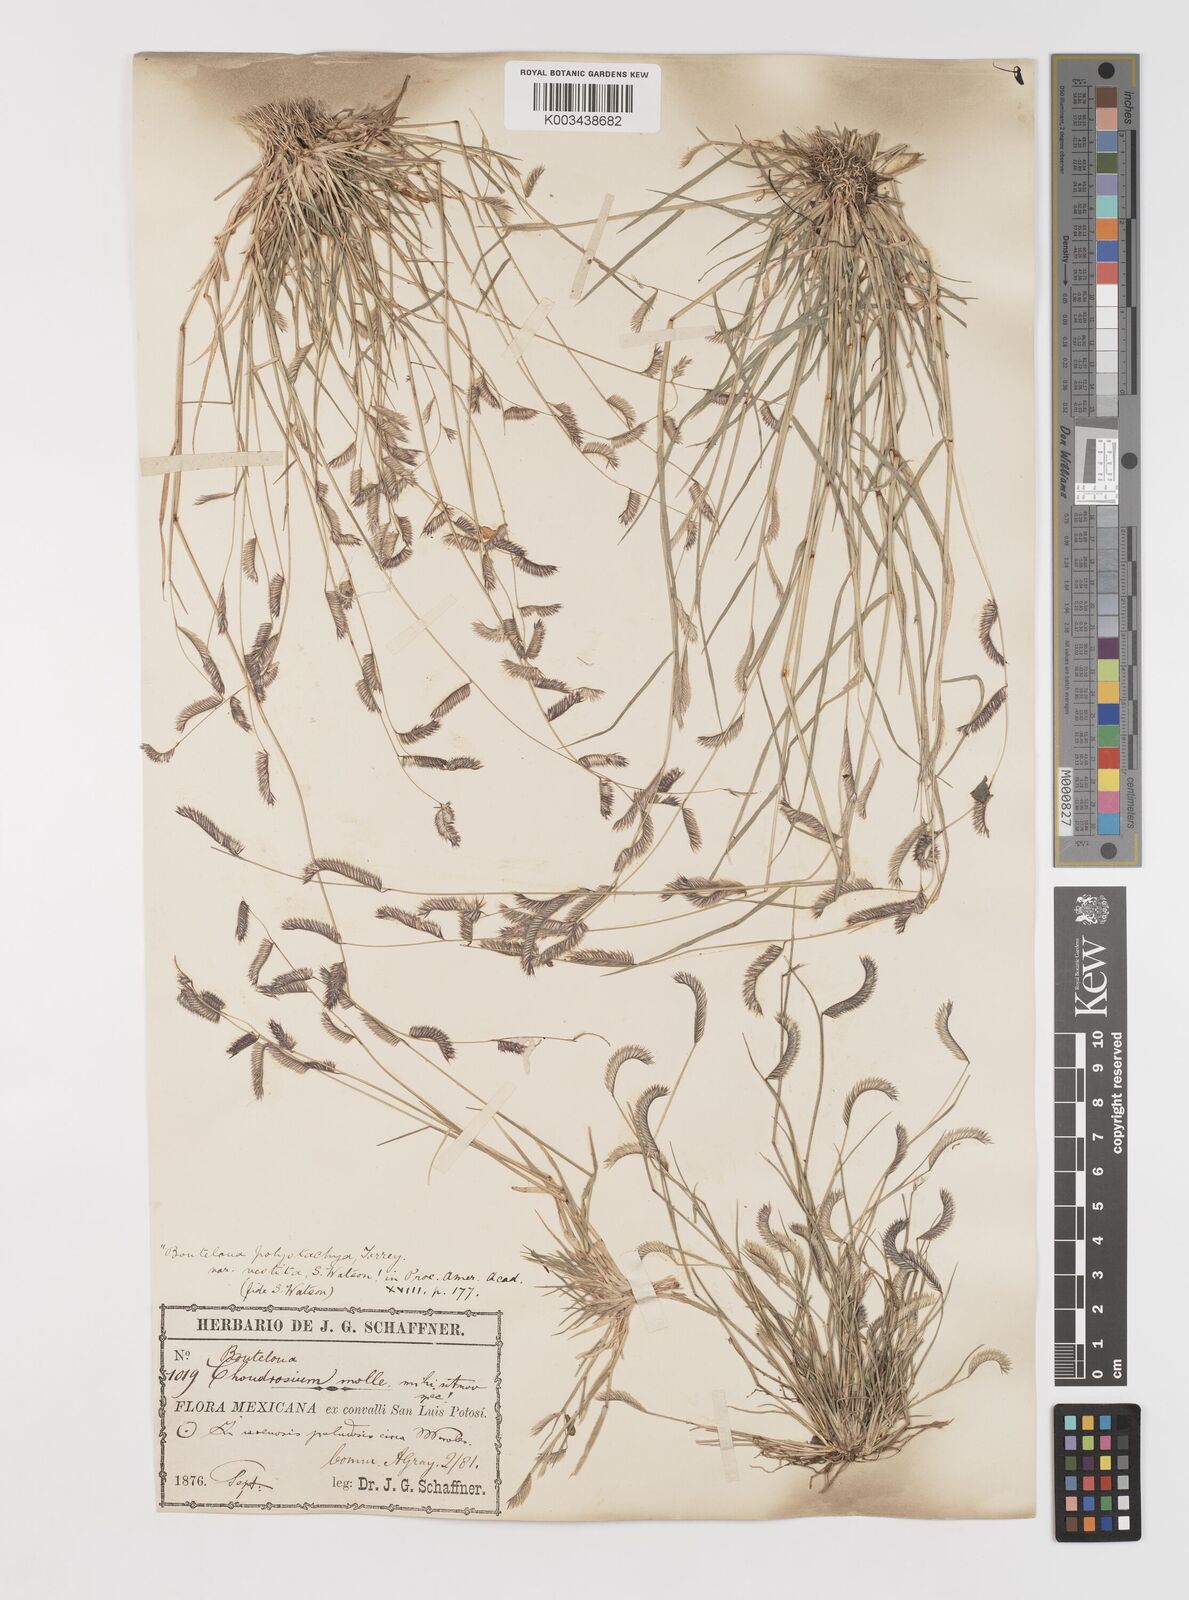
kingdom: Plantae
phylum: Tracheophyta
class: Liliopsida
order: Poales
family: Poaceae
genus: Bouteloua
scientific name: Bouteloua
